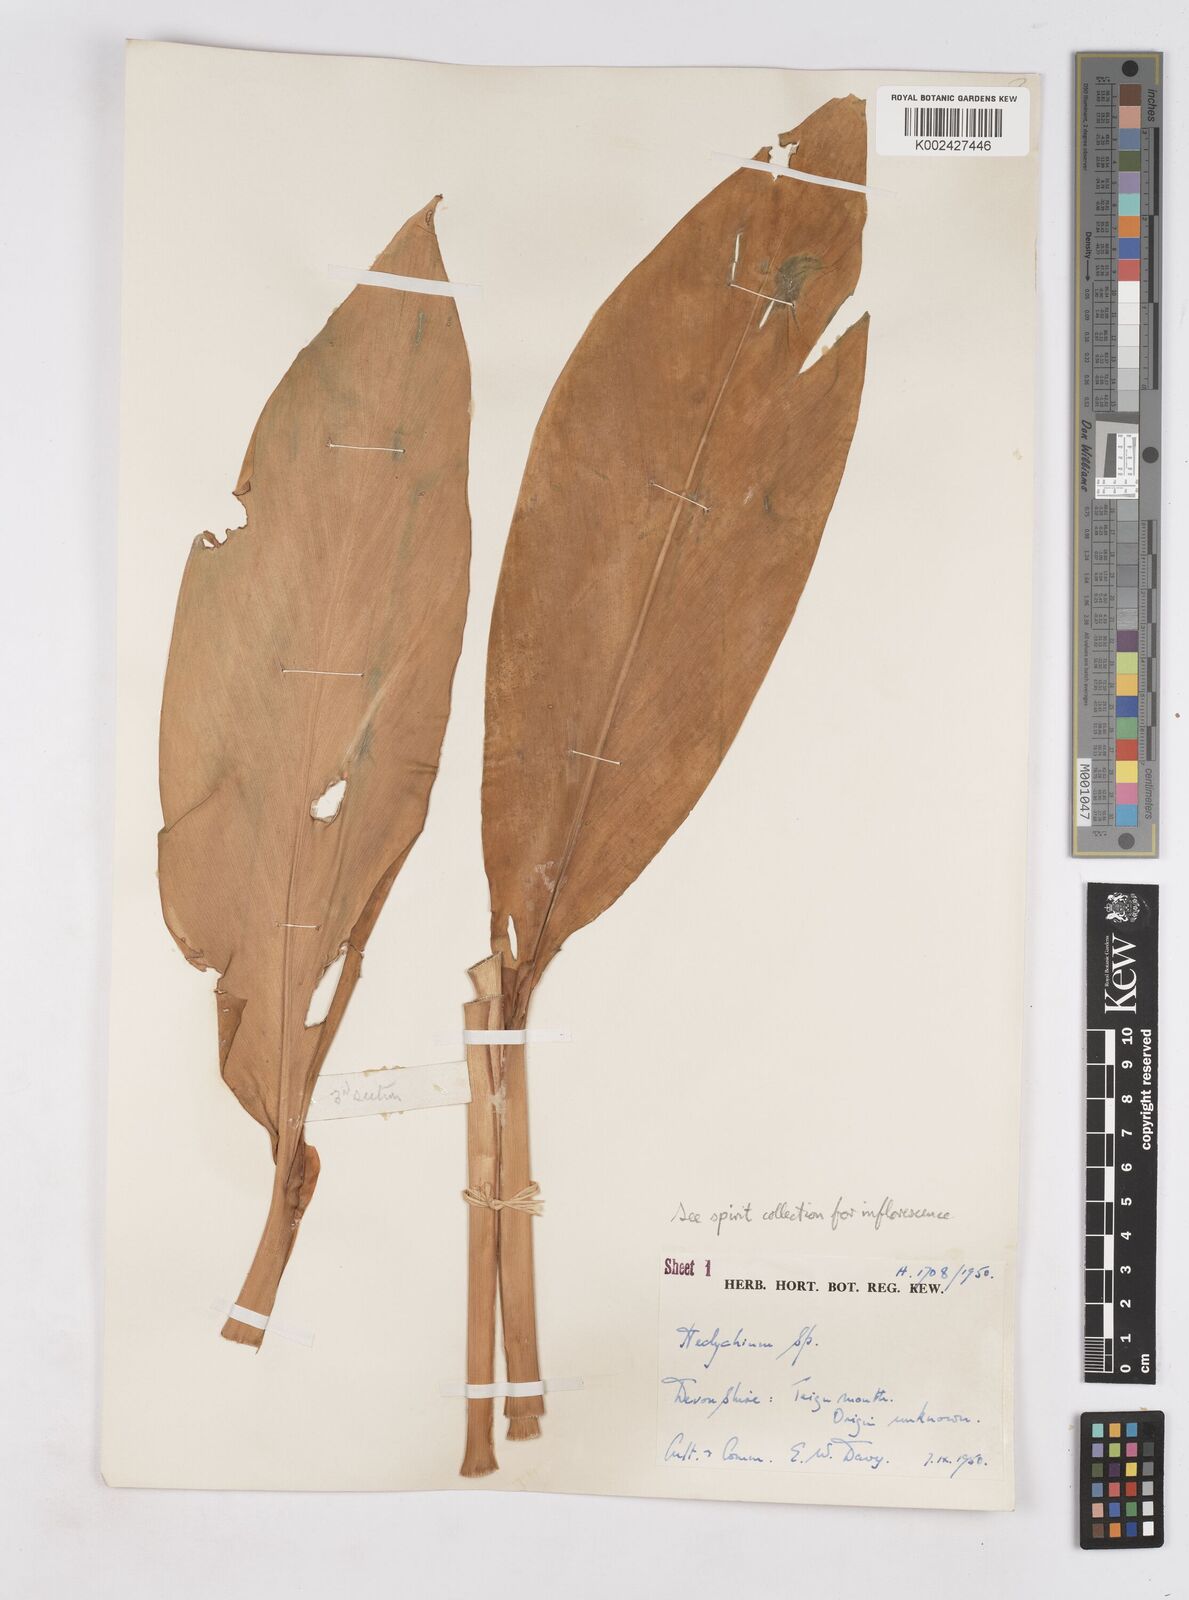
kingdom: Plantae
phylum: Tracheophyta
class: Liliopsida
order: Zingiberales
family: Zingiberaceae
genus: Hedychium
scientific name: Hedychium
